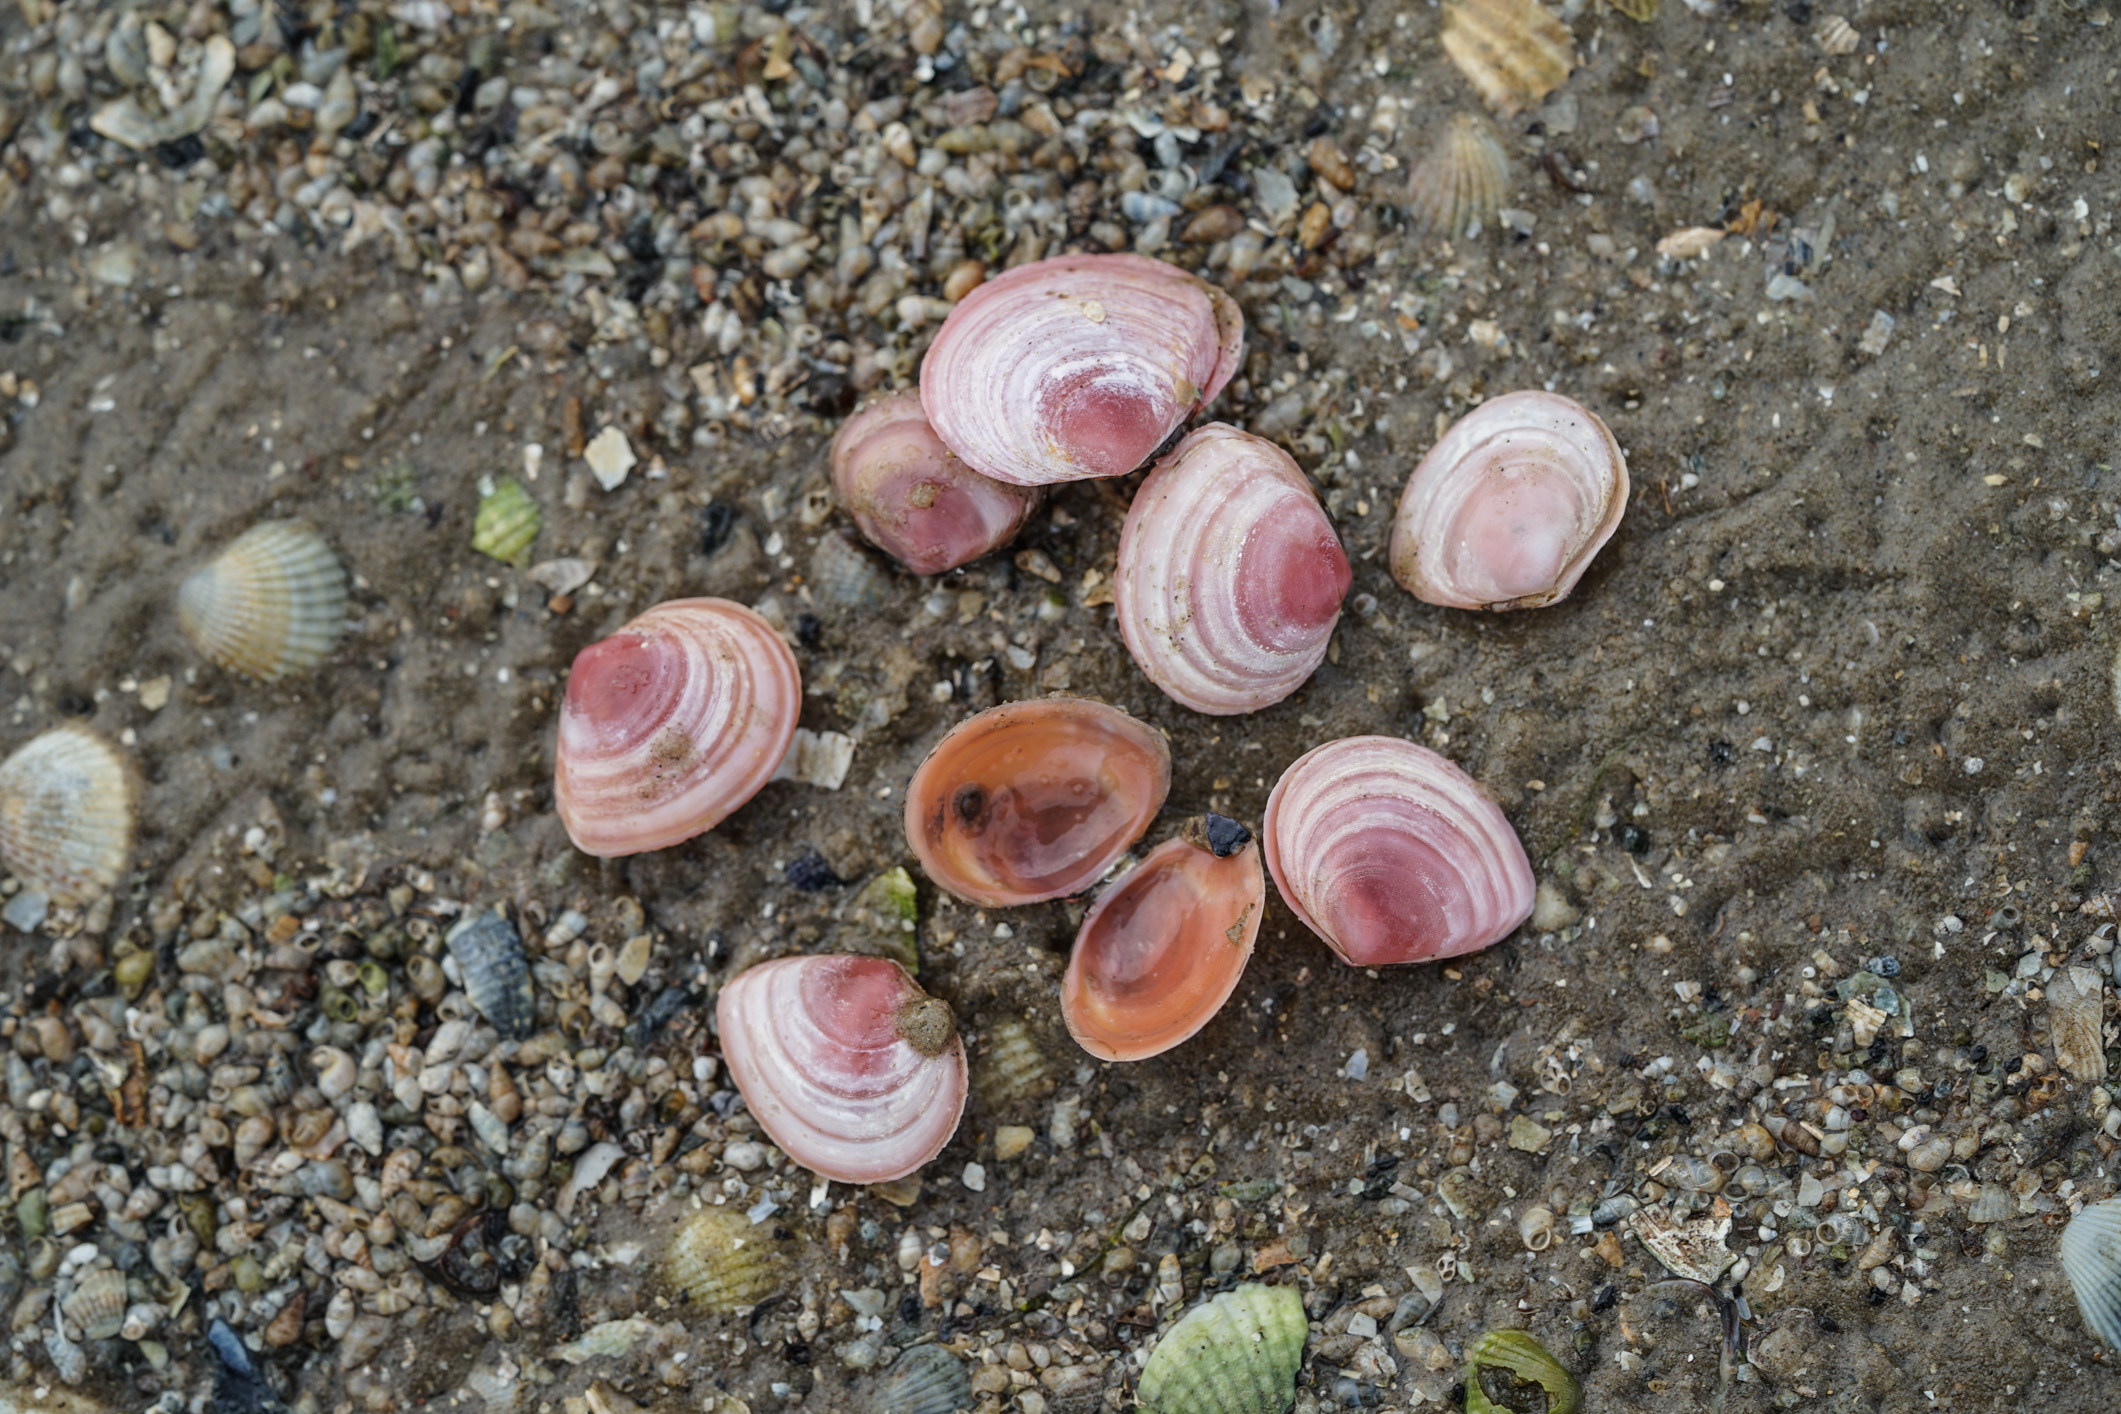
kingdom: Animalia
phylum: Mollusca
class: Bivalvia
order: Cardiida
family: Tellinidae
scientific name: Tellinidae
